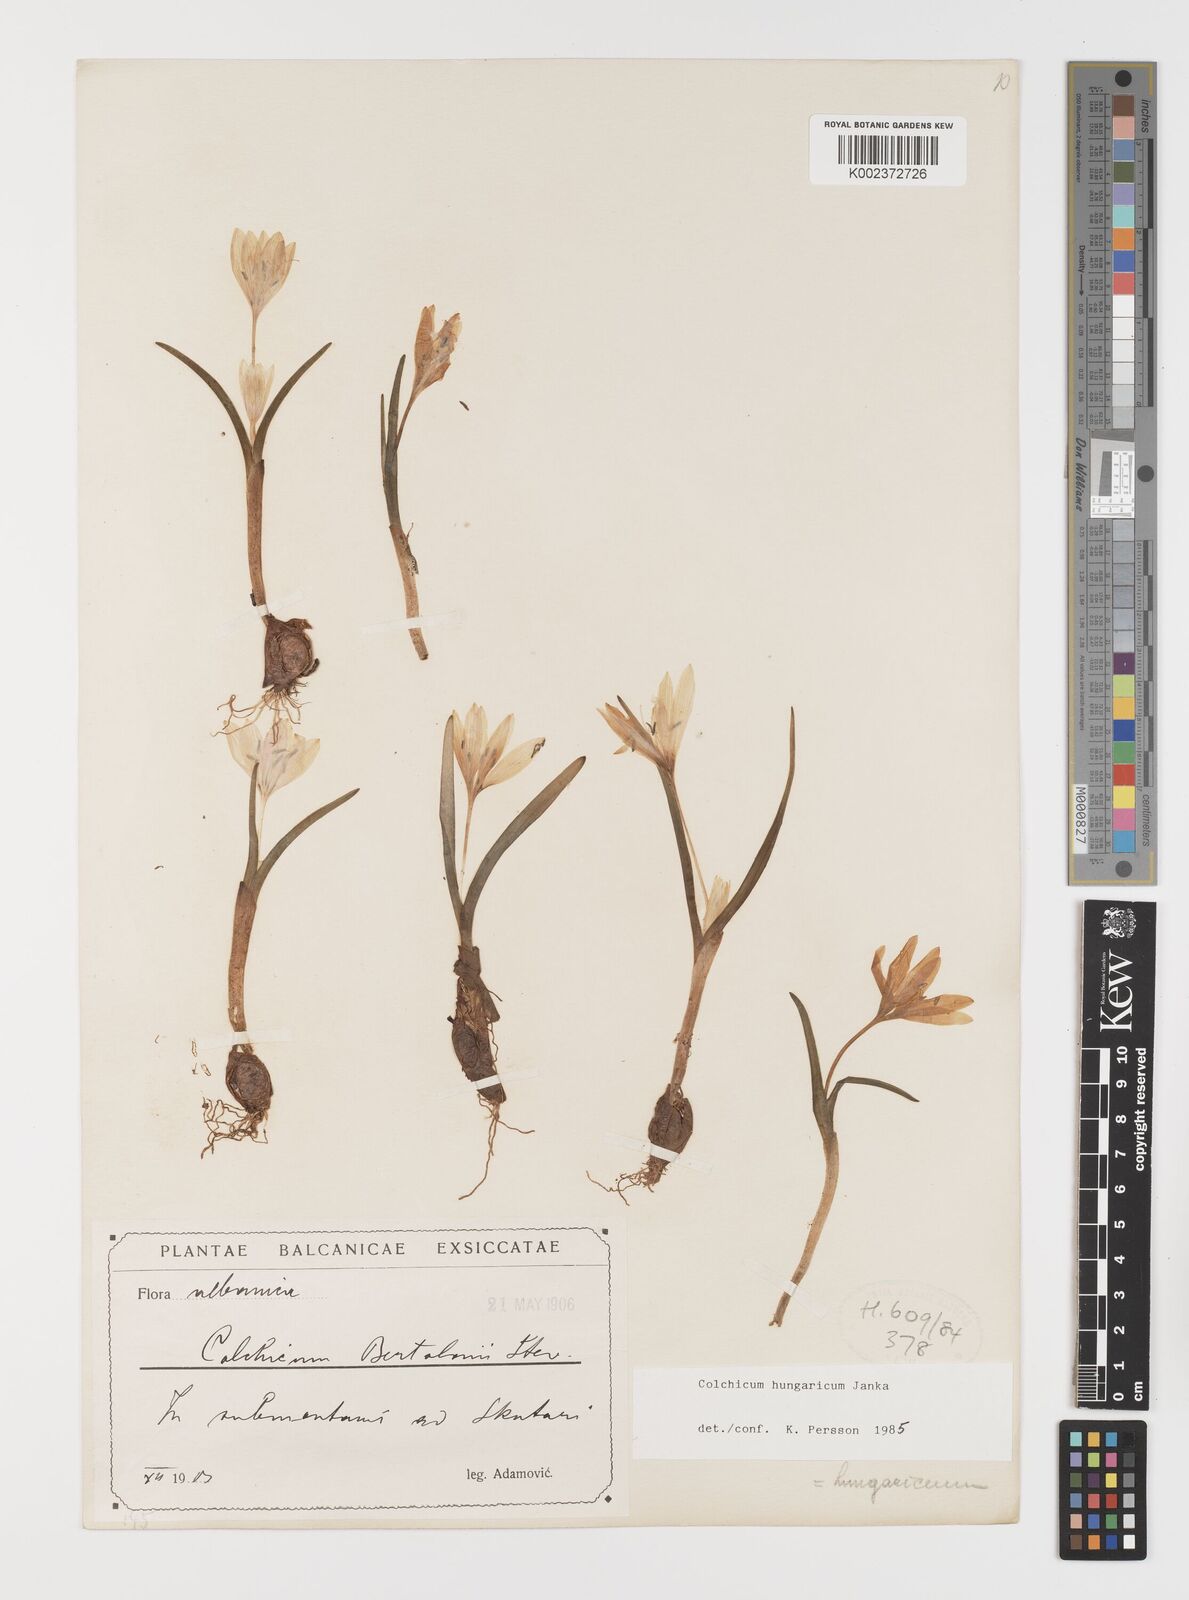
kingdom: Plantae
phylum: Tracheophyta
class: Liliopsida
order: Liliales
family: Colchicaceae
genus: Colchicum
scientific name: Colchicum hungaricum
